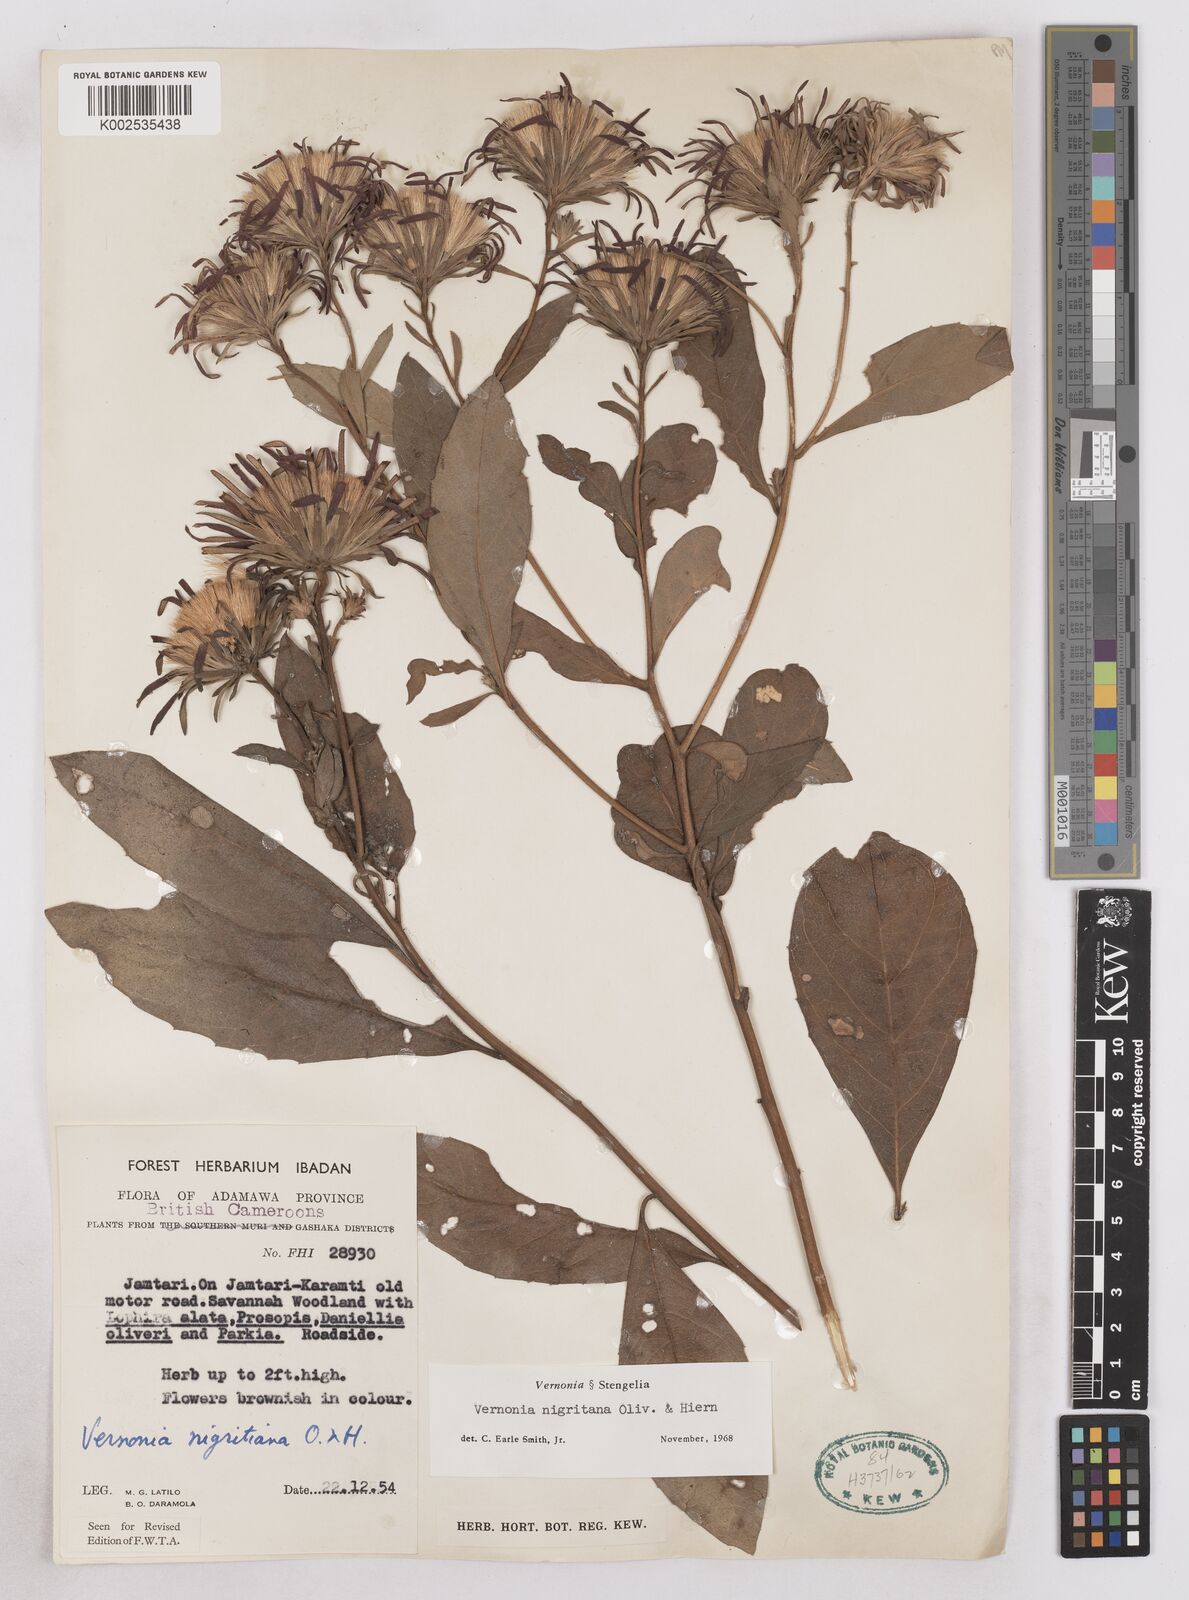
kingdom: Plantae
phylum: Tracheophyta
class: Magnoliopsida
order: Asterales
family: Asteraceae
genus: Linzia
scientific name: Linzia nigritiana
